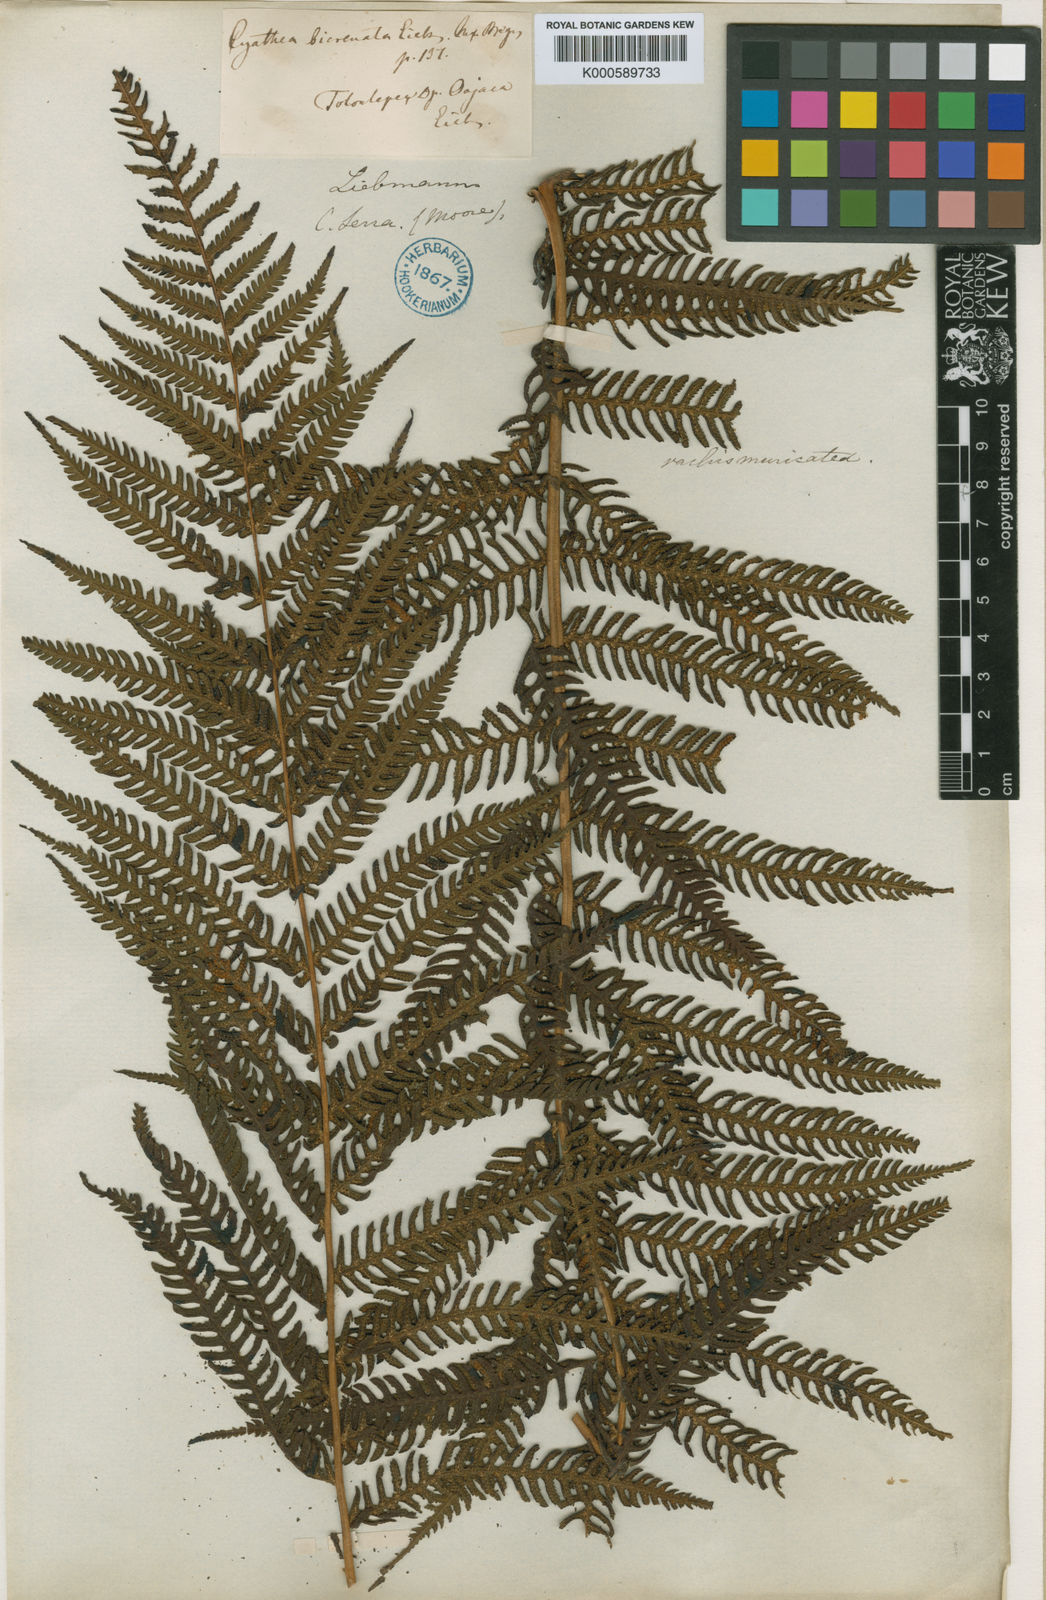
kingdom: Plantae
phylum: Tracheophyta
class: Polypodiopsida
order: Cyatheales
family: Cyatheaceae
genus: Cyathea
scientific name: Cyathea bicrenata
